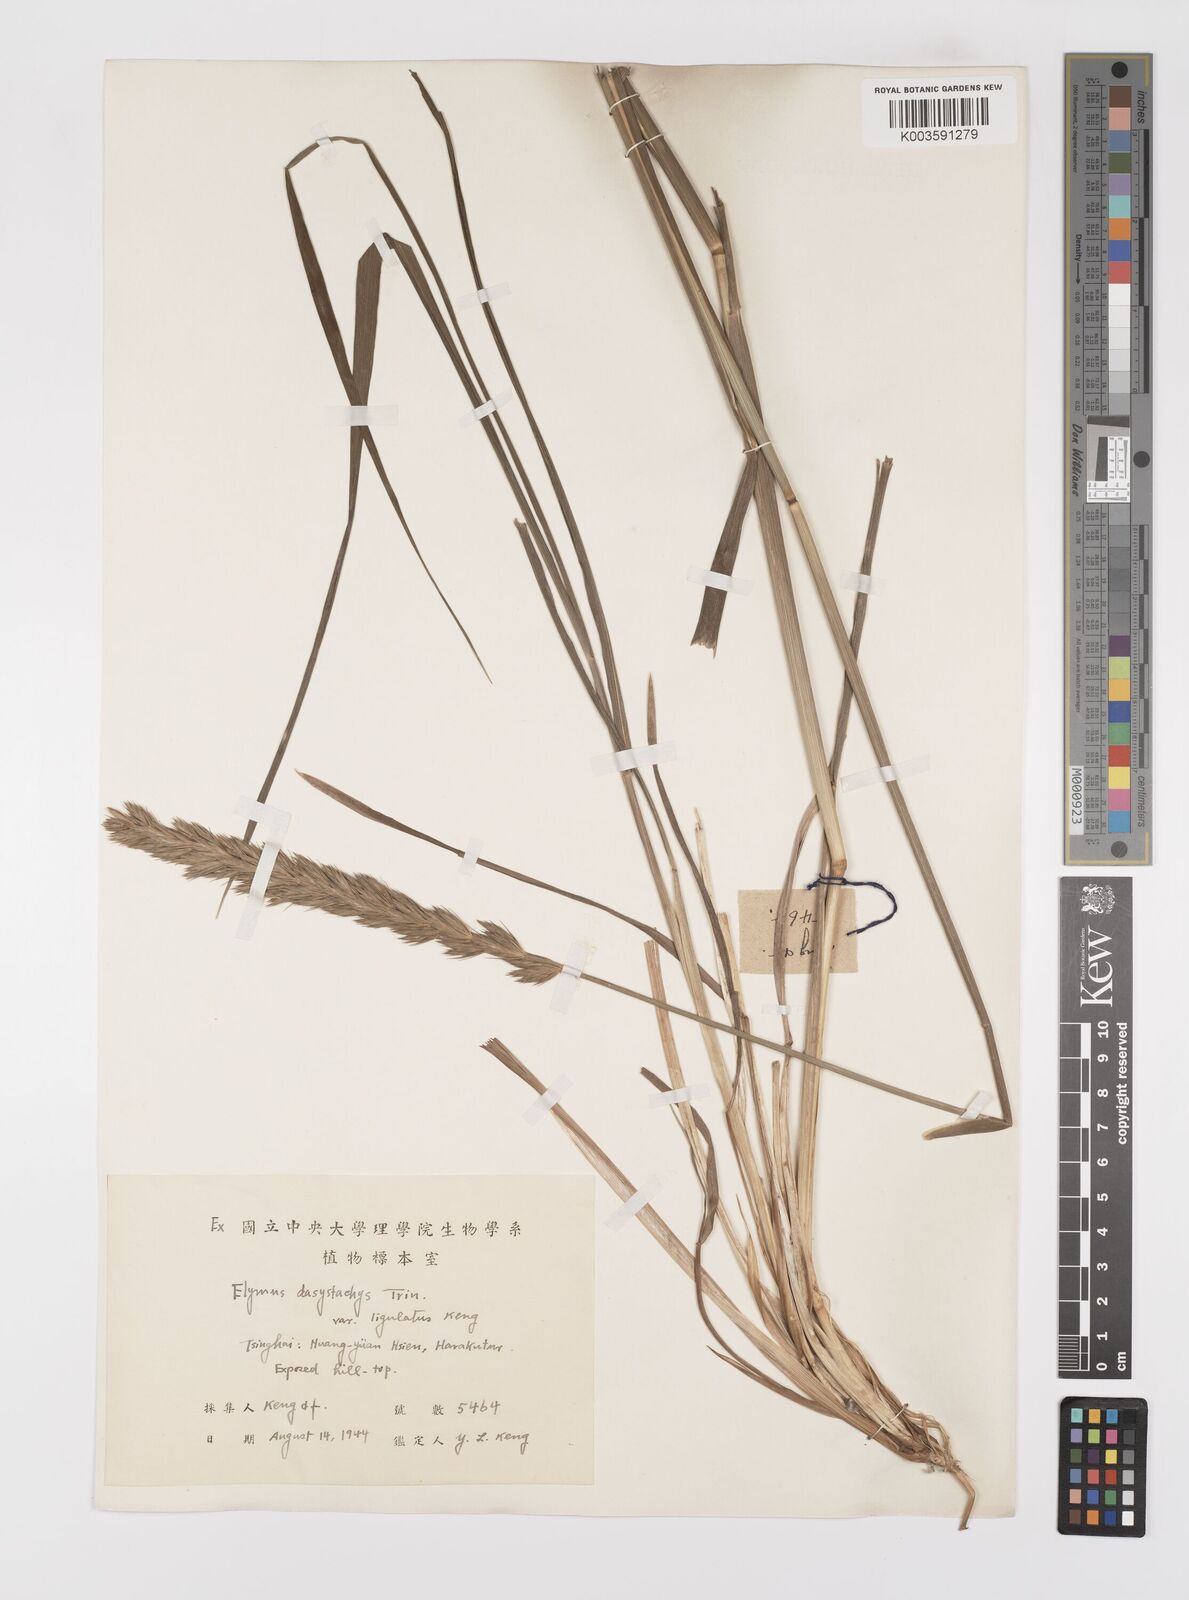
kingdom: Plantae
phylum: Tracheophyta
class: Liliopsida
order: Poales
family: Poaceae
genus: Leymus
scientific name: Leymus secalinus
